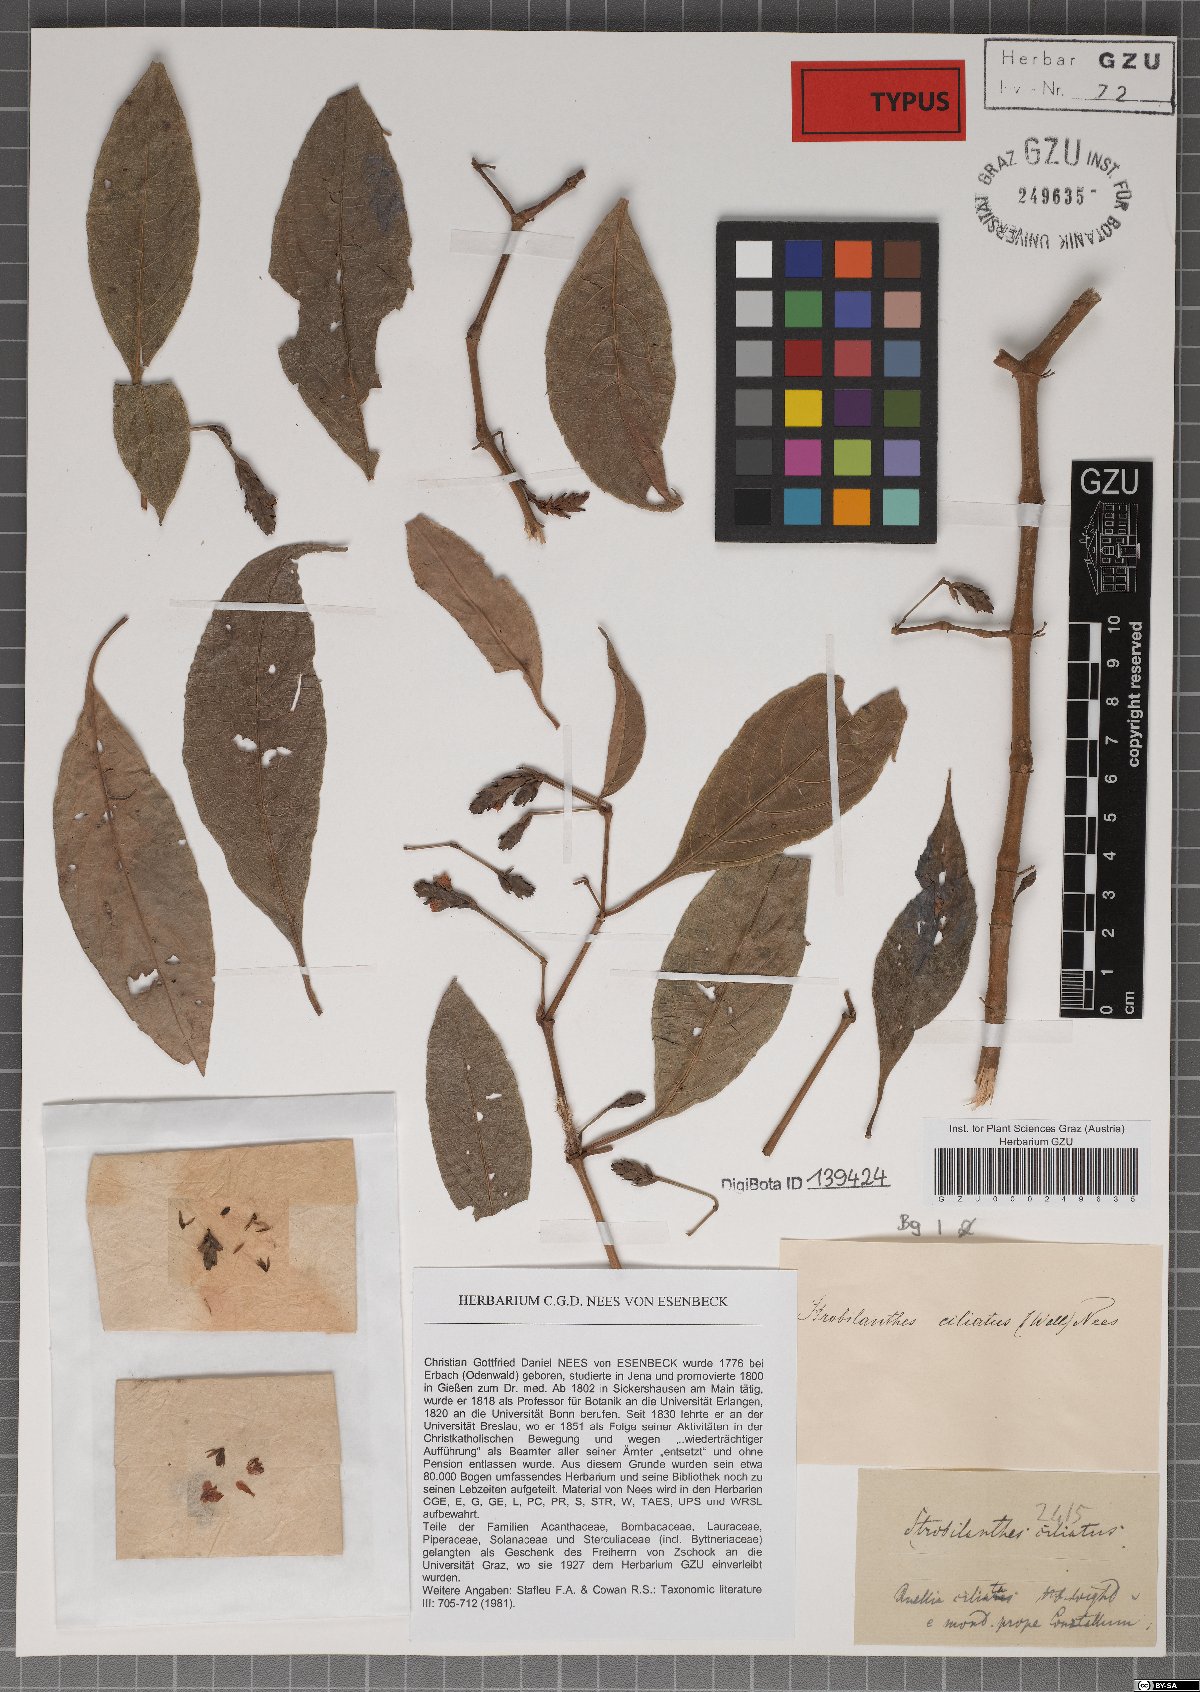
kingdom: Plantae
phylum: Tracheophyta
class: Magnoliopsida
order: Lamiales
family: Acanthaceae
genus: Strobilanthes
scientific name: Strobilanthes ciliata
